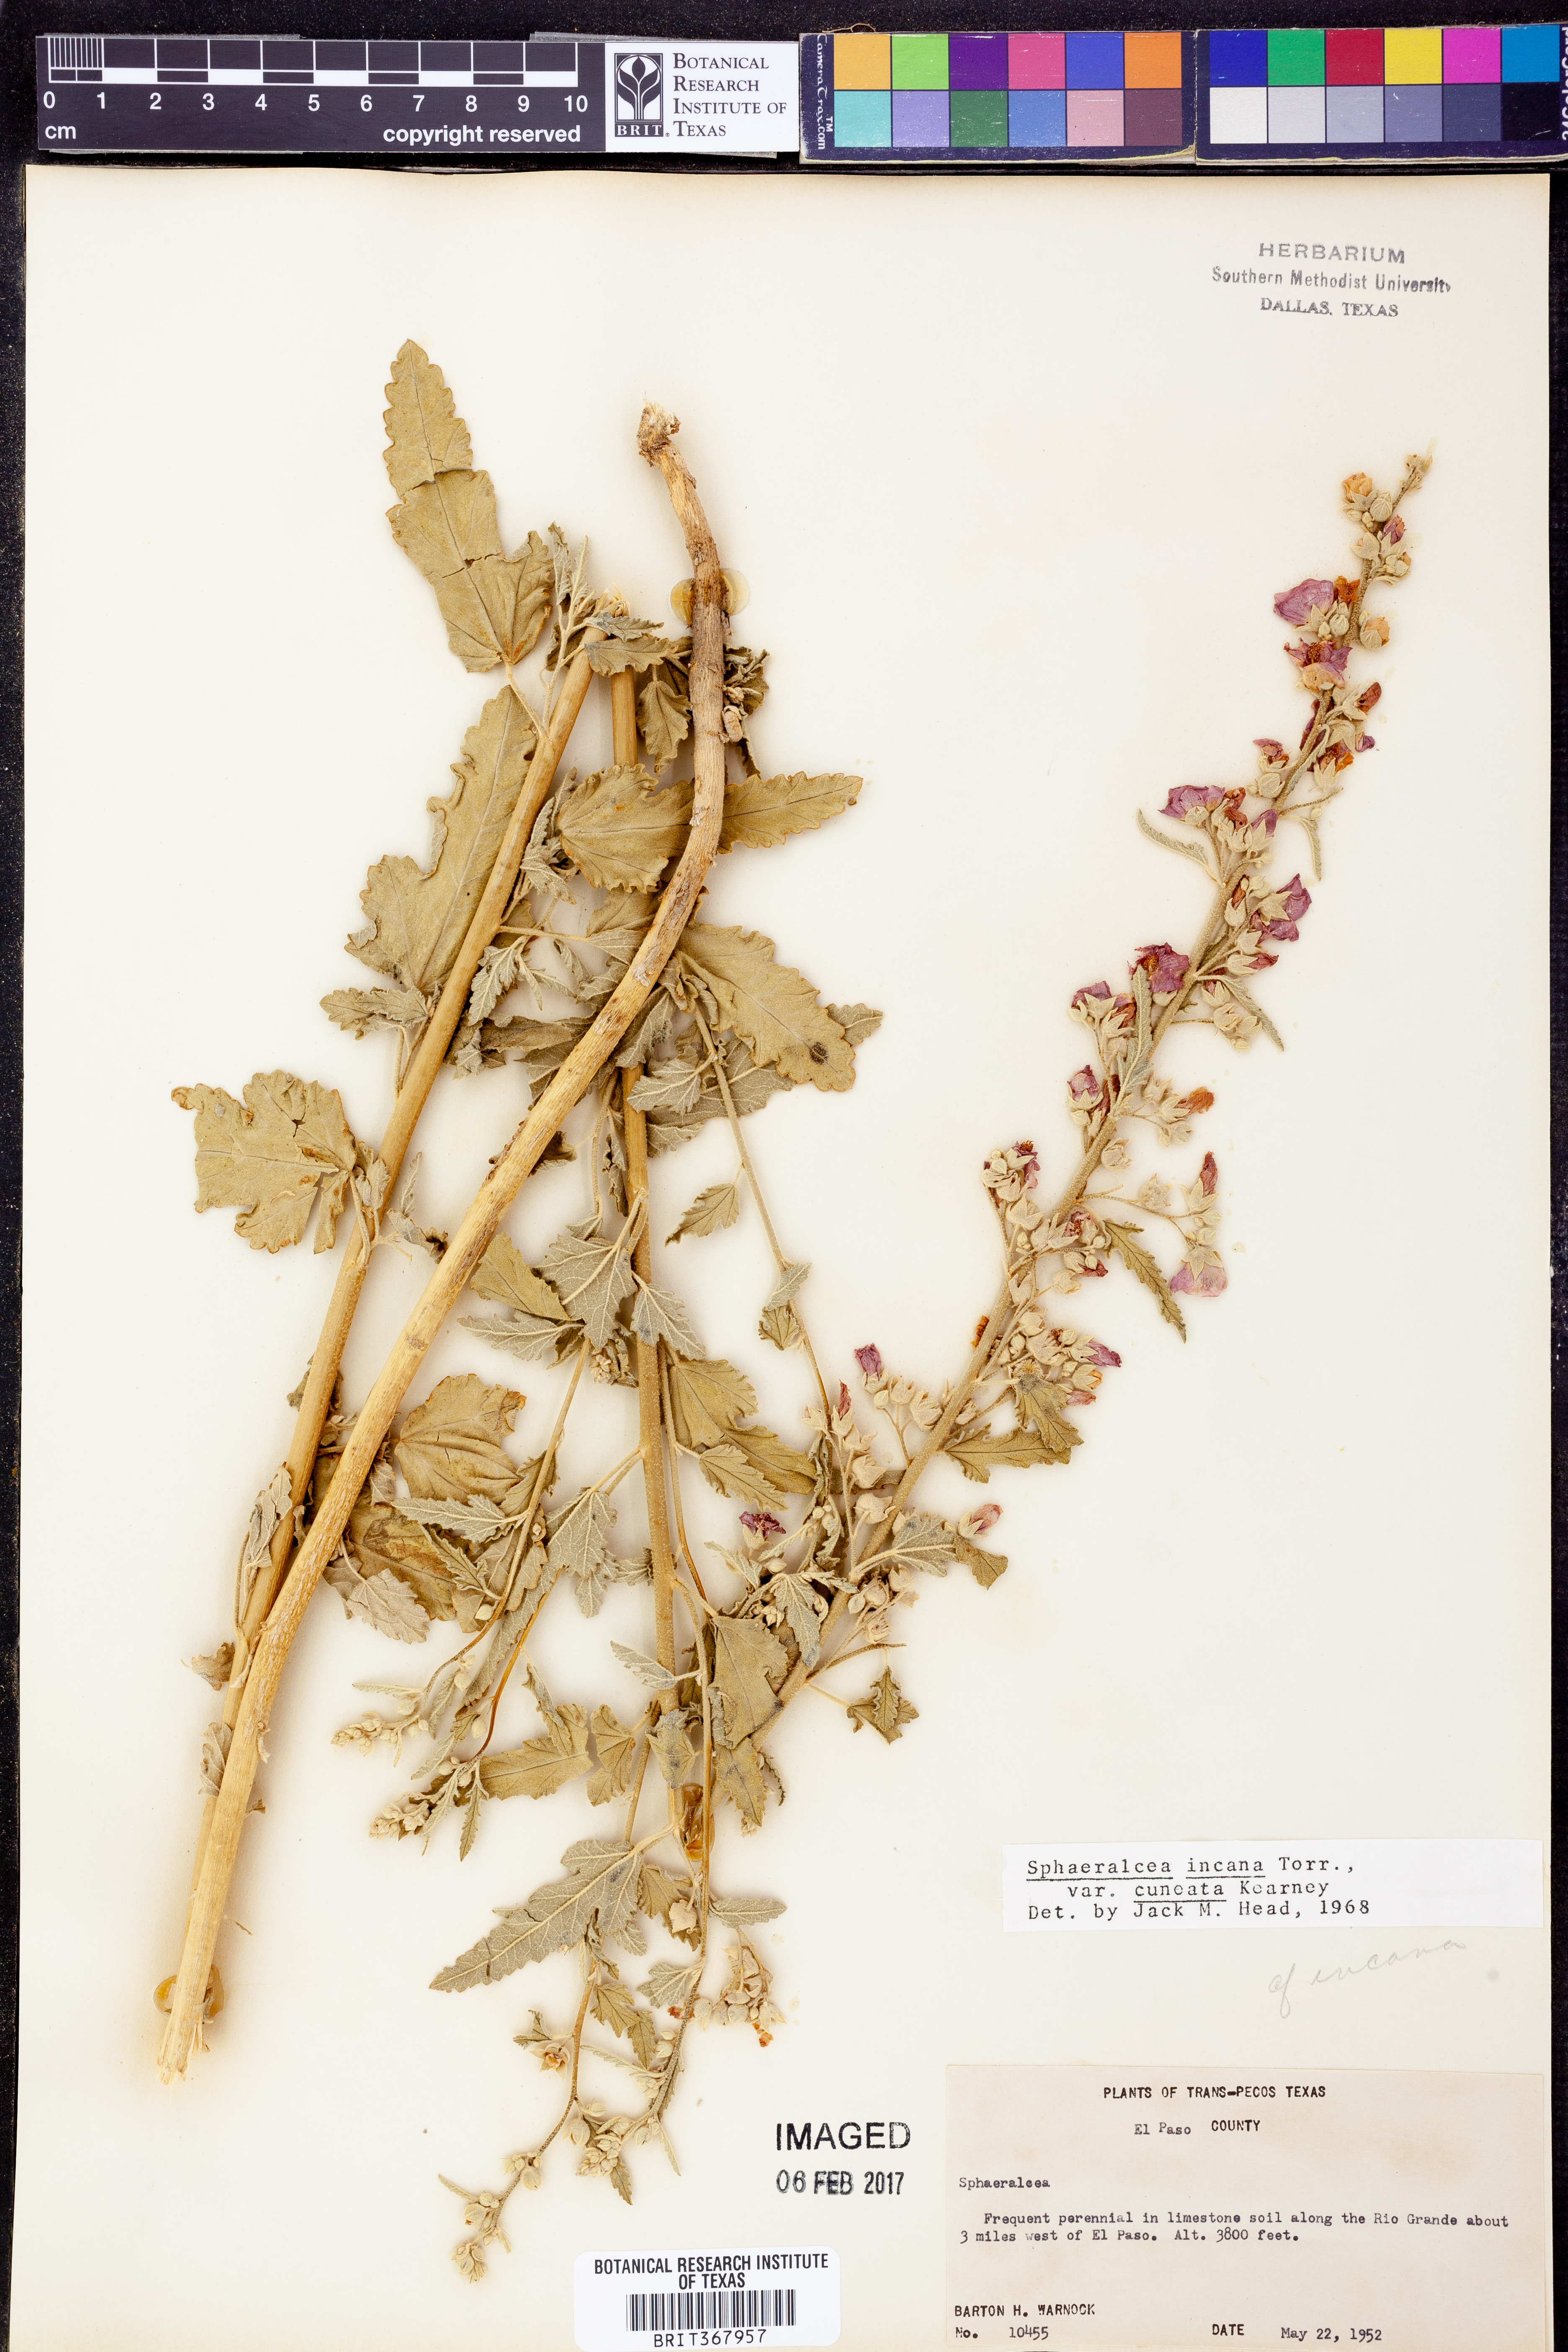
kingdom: Plantae
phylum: Tracheophyta
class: Magnoliopsida
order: Malvales
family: Malvaceae
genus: Sphaeralcea
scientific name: Sphaeralcea angustifolia
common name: Copper globe-mallow
